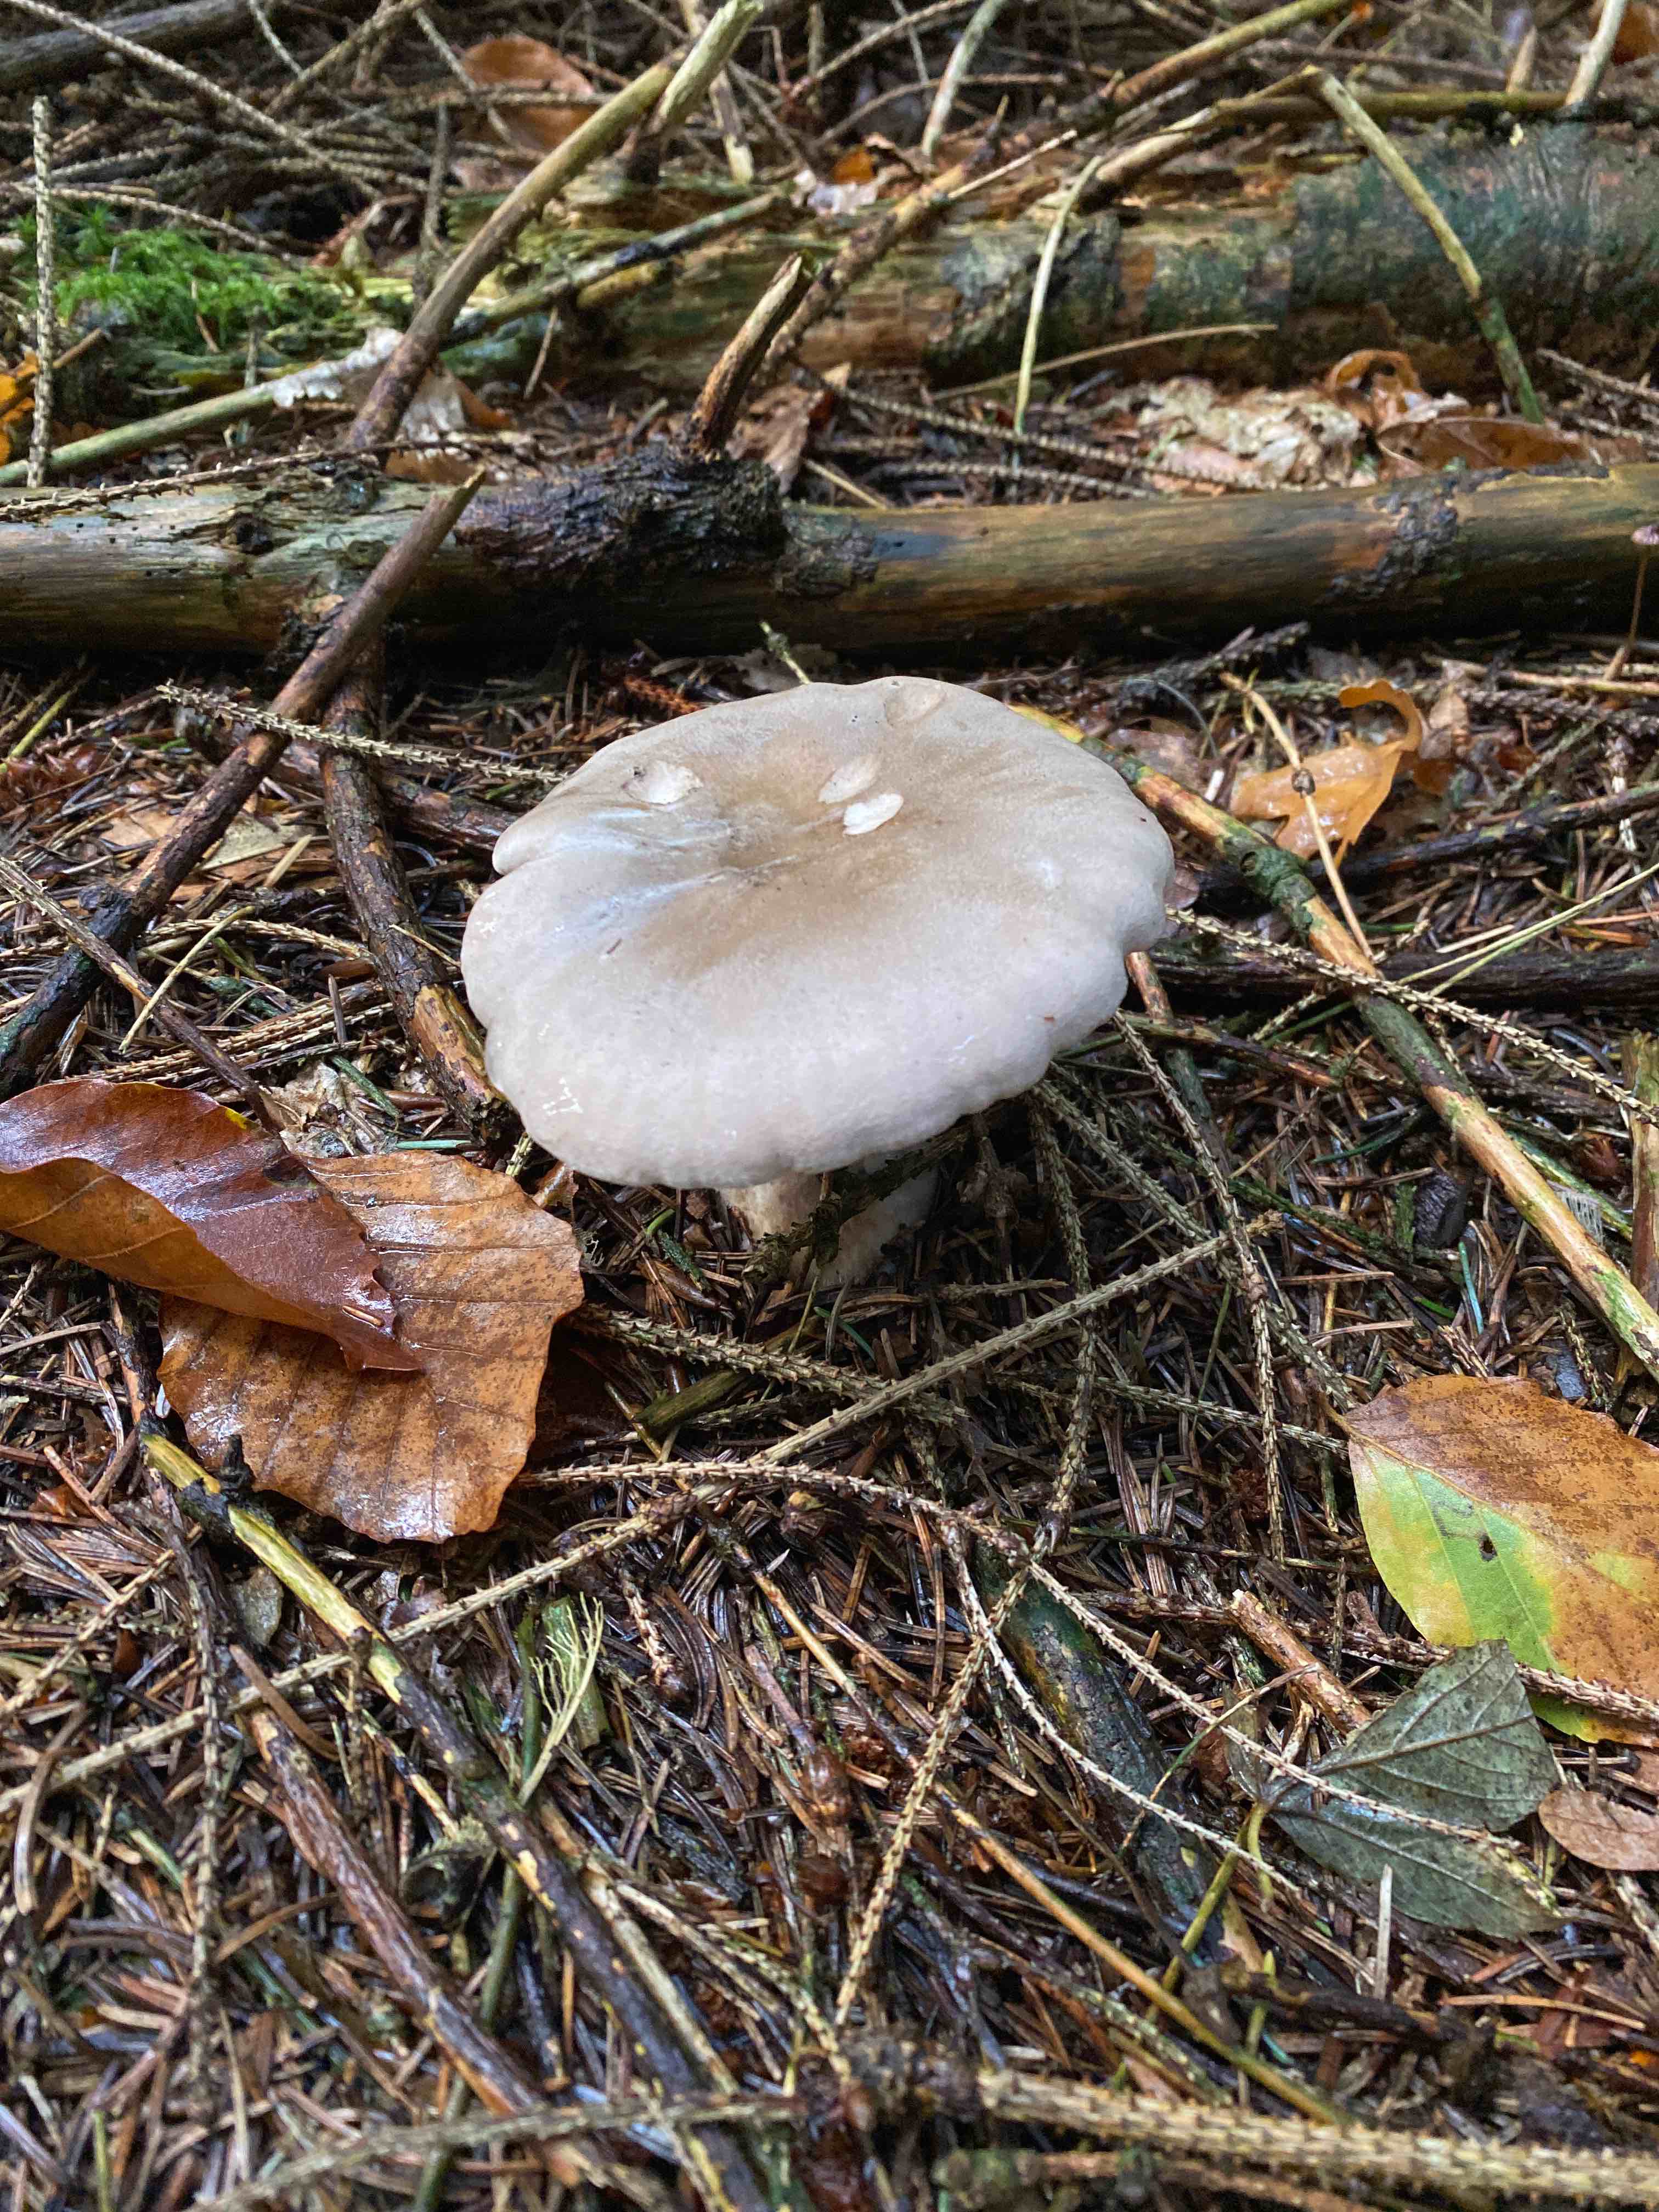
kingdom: Fungi
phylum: Basidiomycota
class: Agaricomycetes
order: Agaricales
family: Tricholomataceae
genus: Clitocybe
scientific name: Clitocybe nebularis
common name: tåge-tragthat
